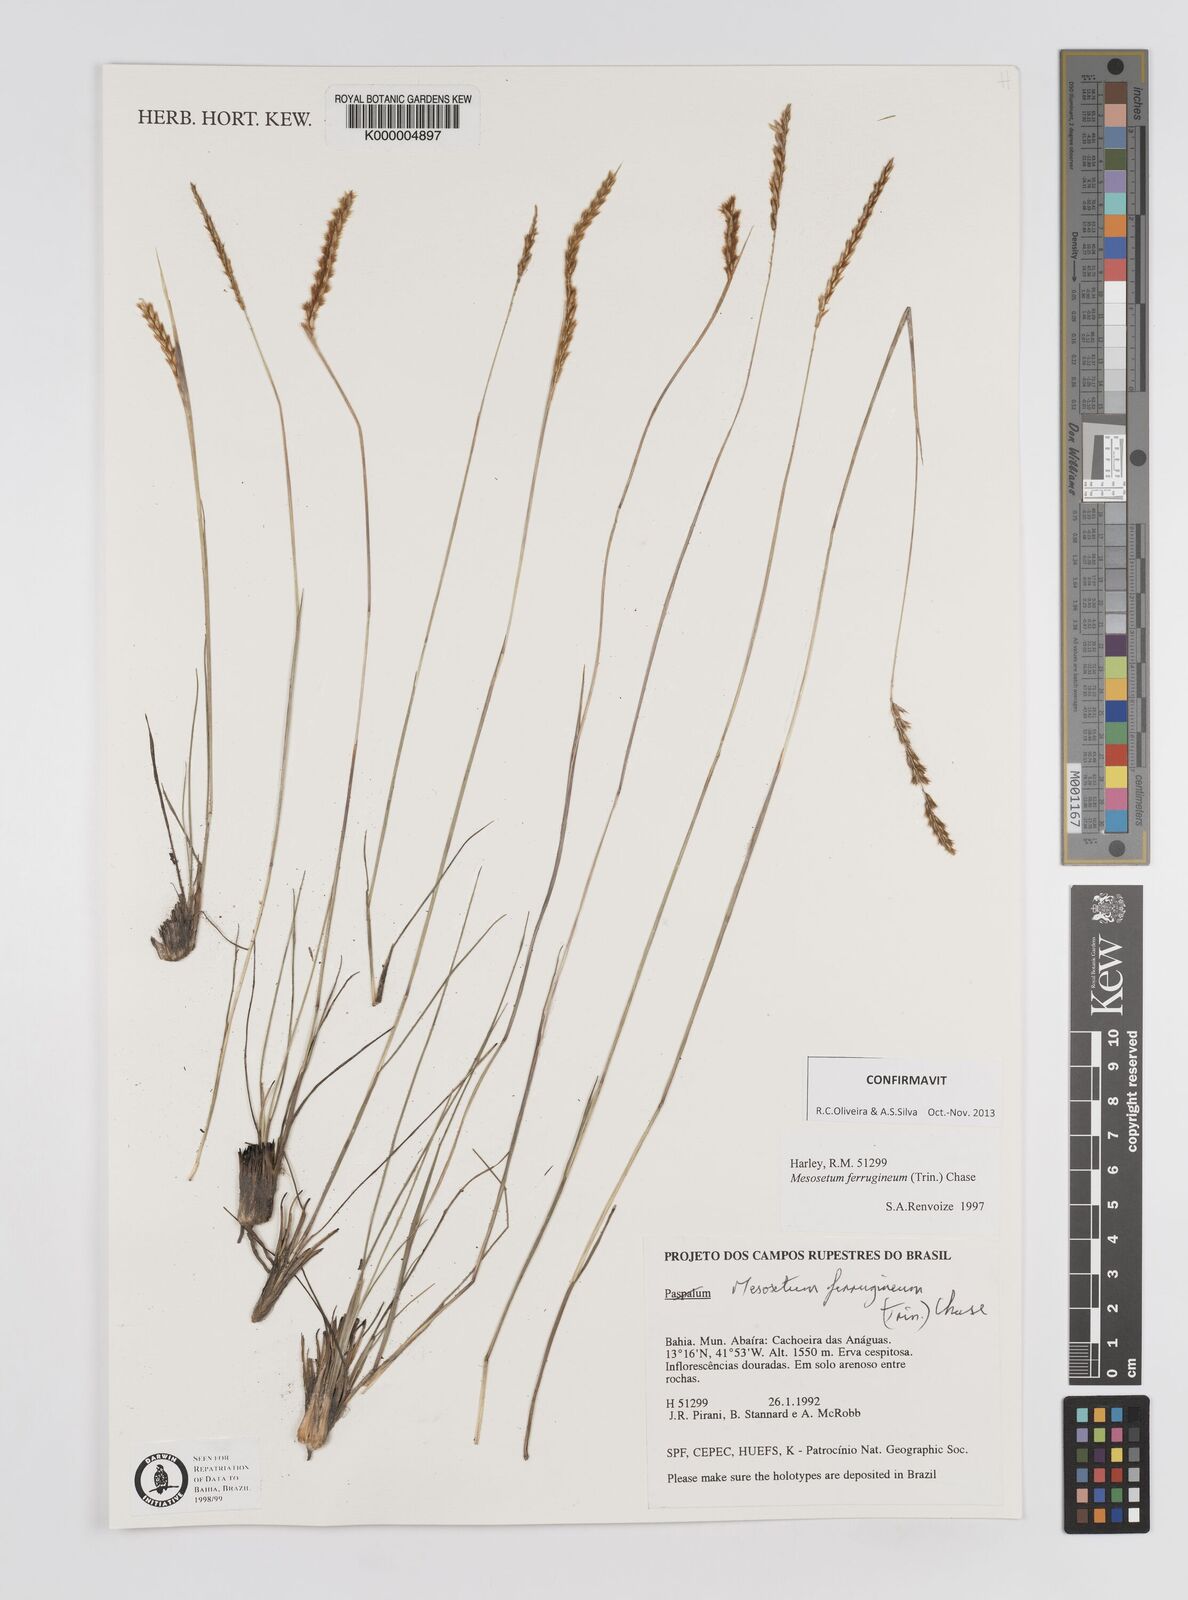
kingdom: Plantae
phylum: Tracheophyta
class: Liliopsida
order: Poales
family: Poaceae
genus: Mesosetum
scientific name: Mesosetum ferrugineum
